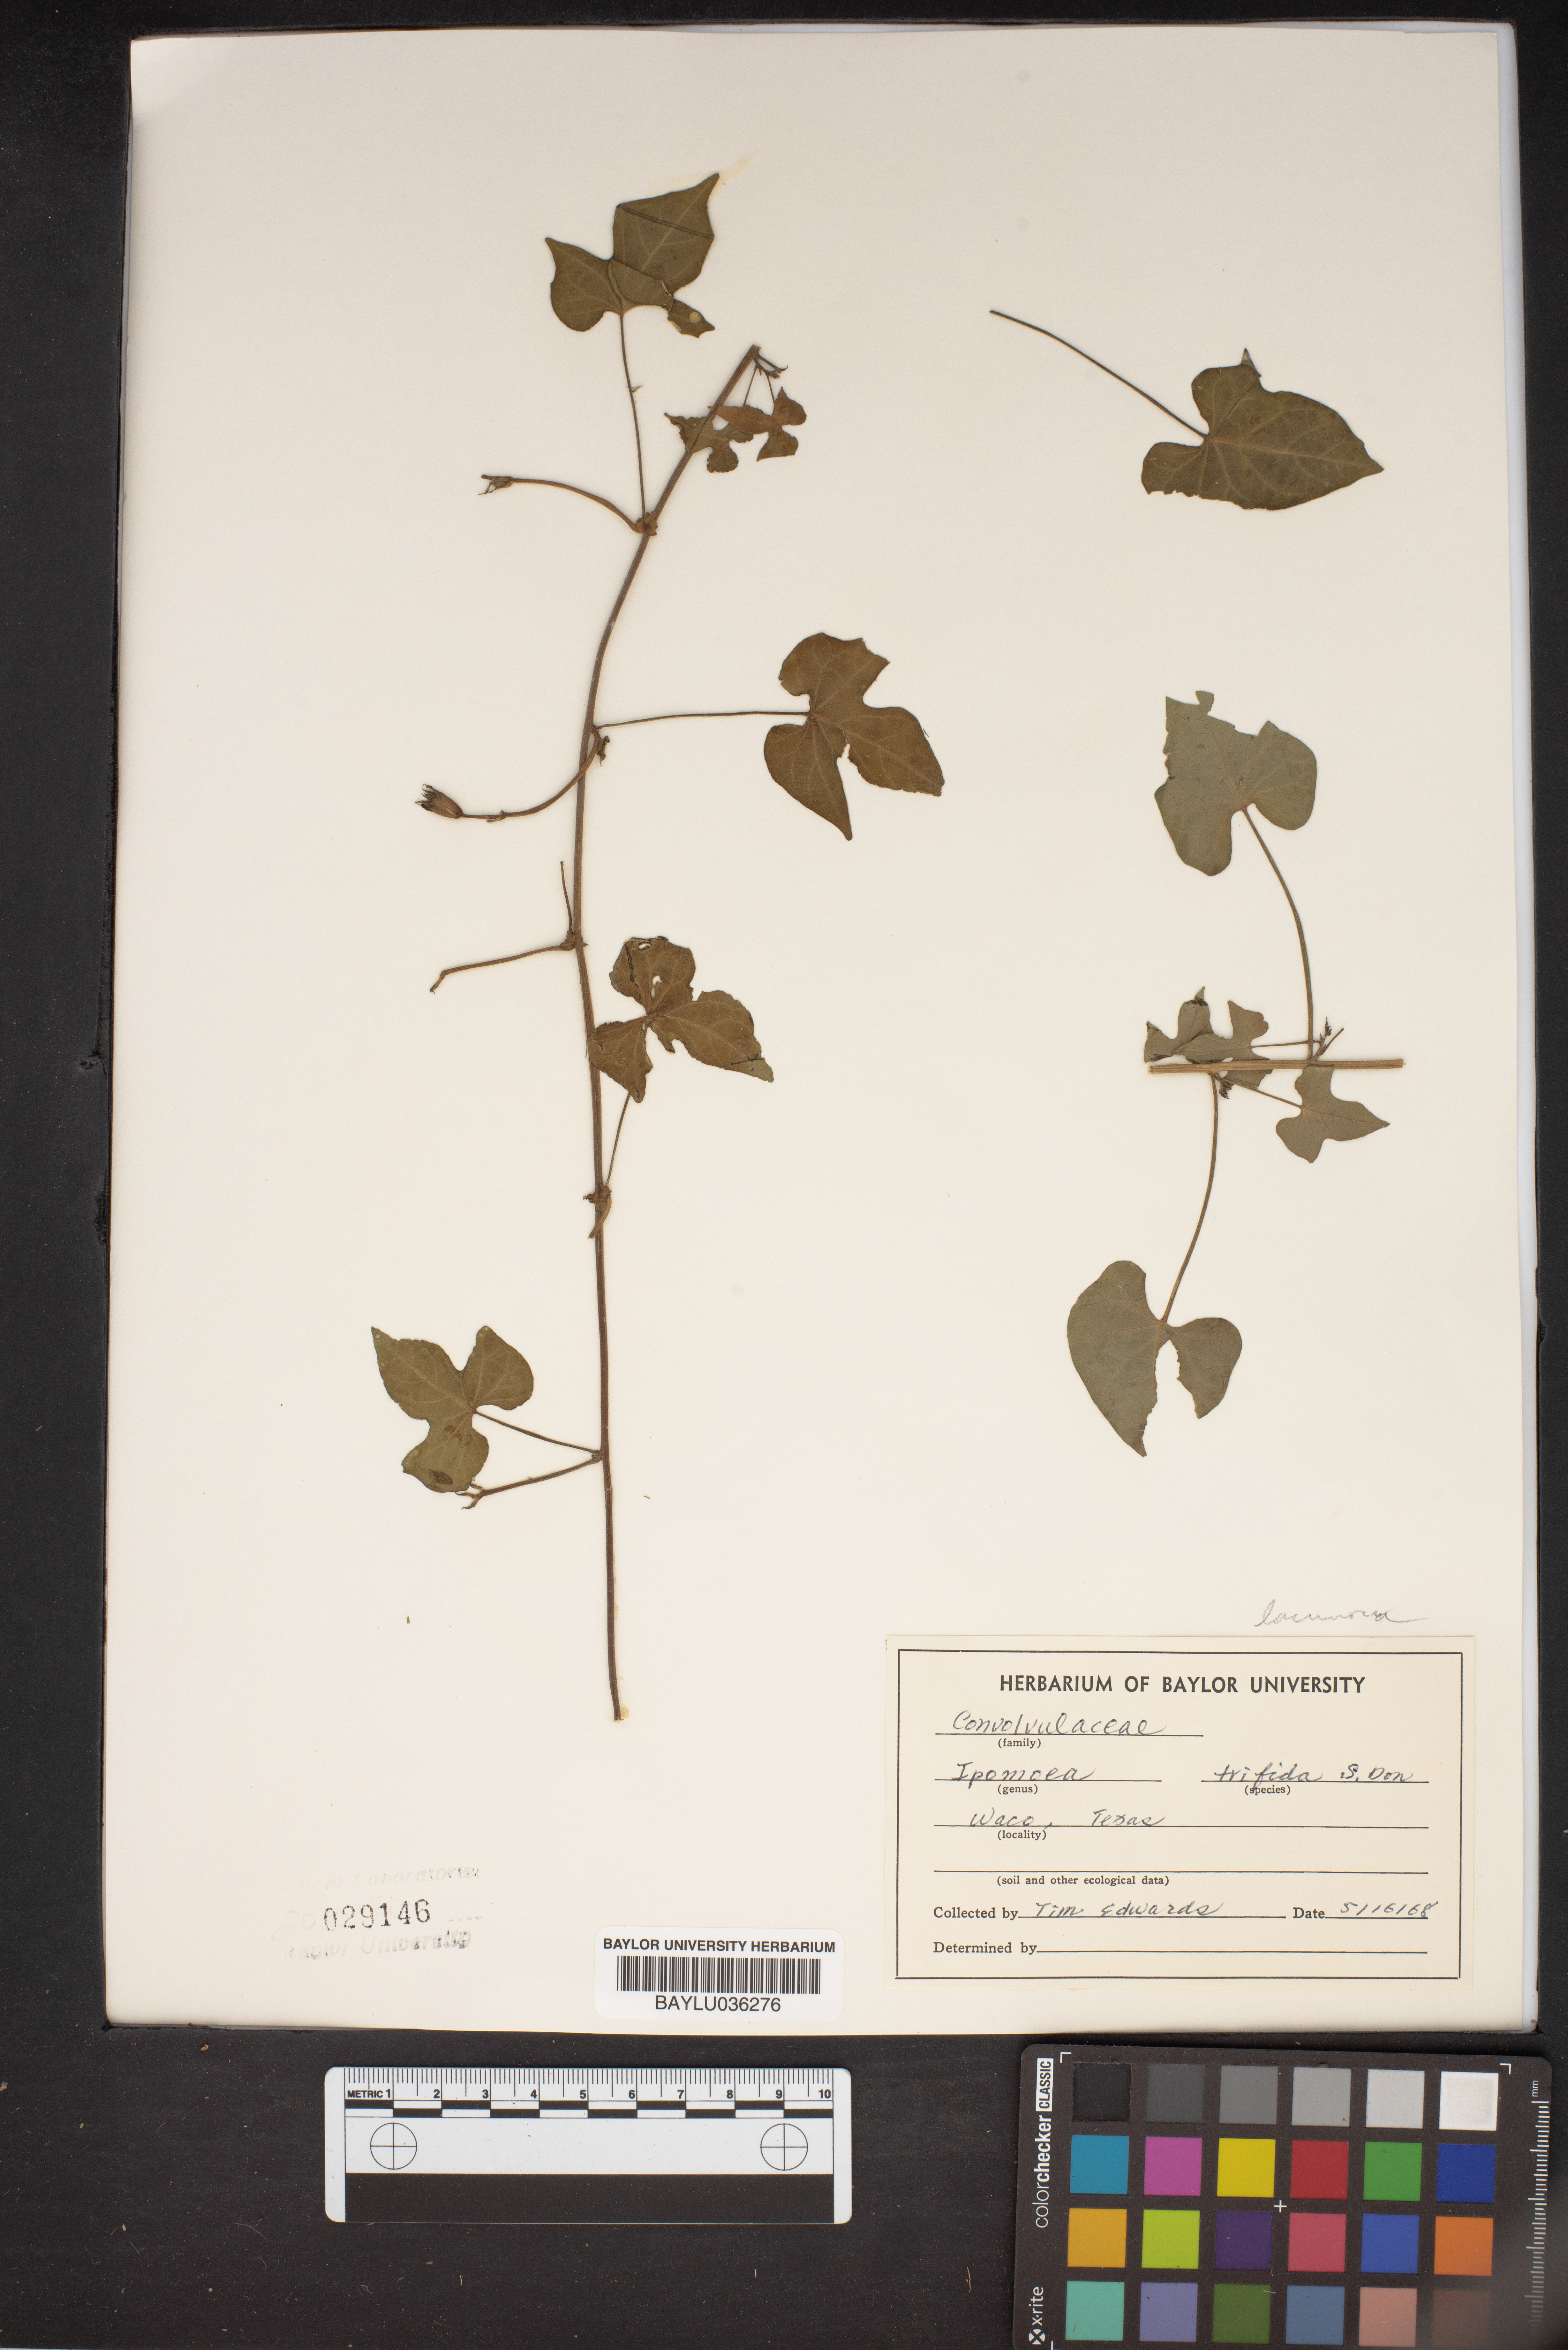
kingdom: Plantae
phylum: Tracheophyta
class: Magnoliopsida
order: Solanales
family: Convolvulaceae
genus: Ipomoea
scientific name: Ipomoea trifida
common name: Cotton morningglory
